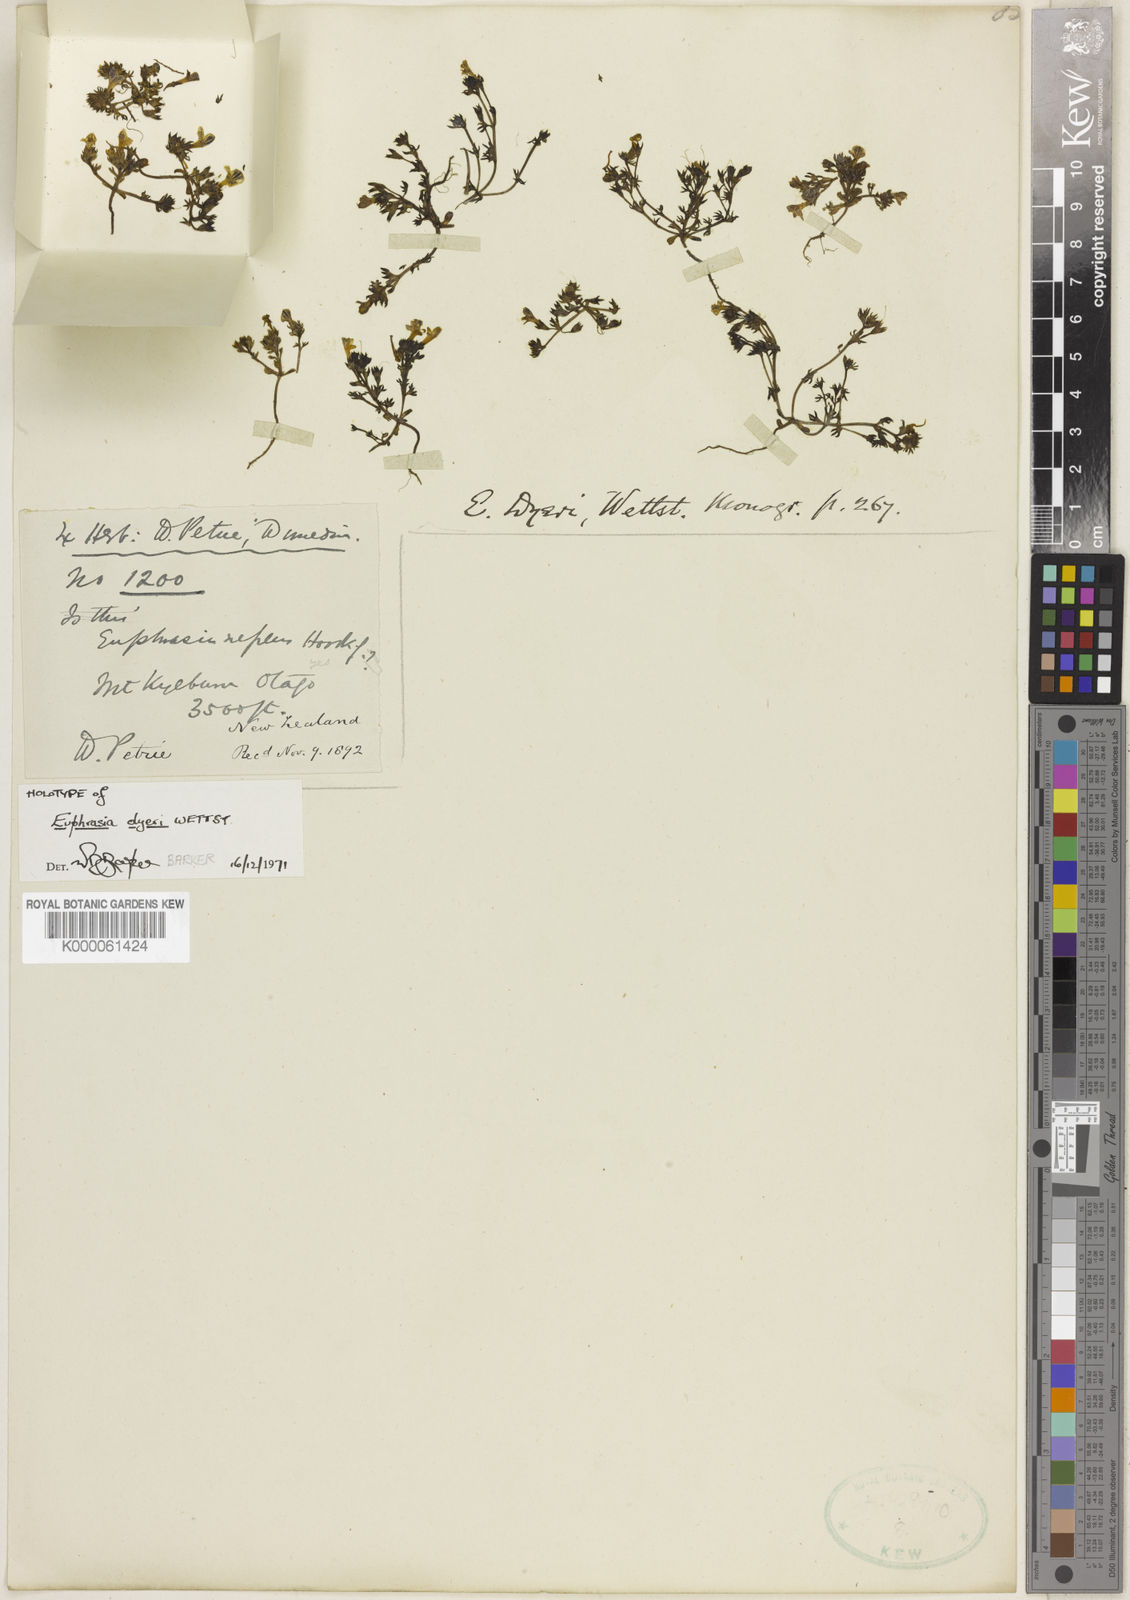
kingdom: Plantae
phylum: Tracheophyta
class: Magnoliopsida
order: Lamiales
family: Orobanchaceae
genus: Euphrasia
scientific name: Euphrasia dyeri
